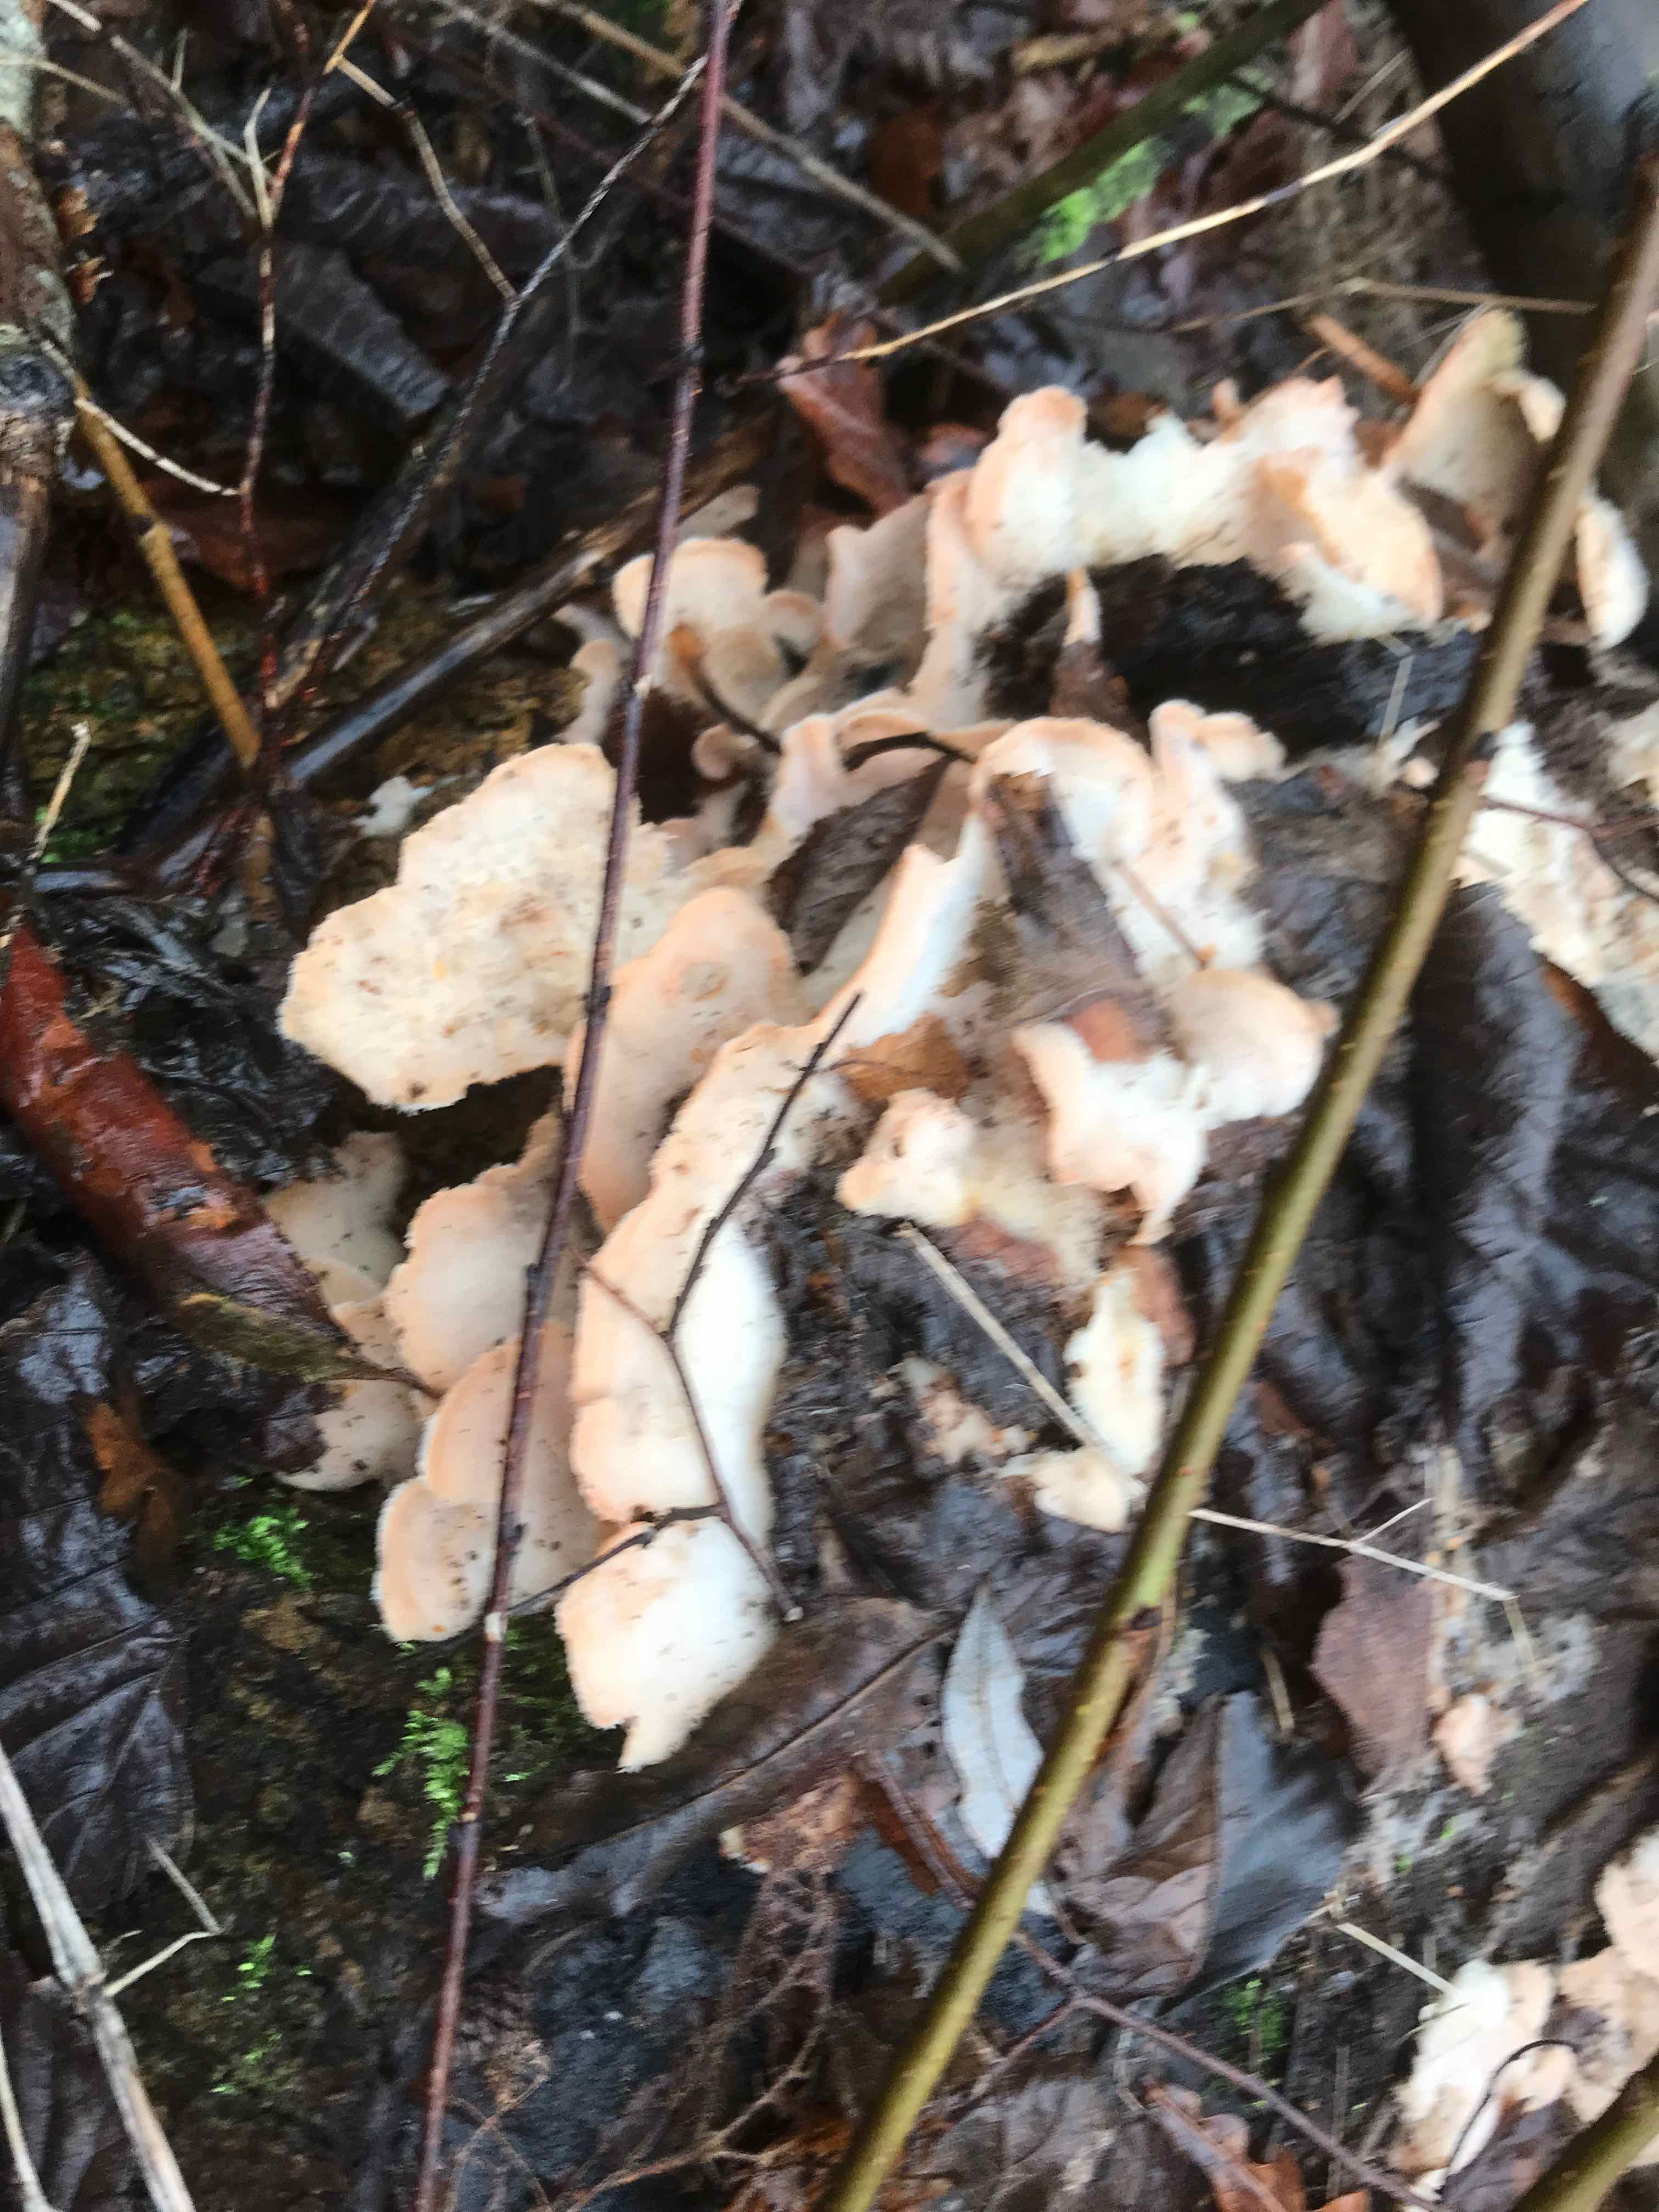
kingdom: Fungi
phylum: Basidiomycota
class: Agaricomycetes
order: Polyporales
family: Meruliaceae
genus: Phlebia
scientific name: Phlebia tremellosa
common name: bævrende åresvamp
